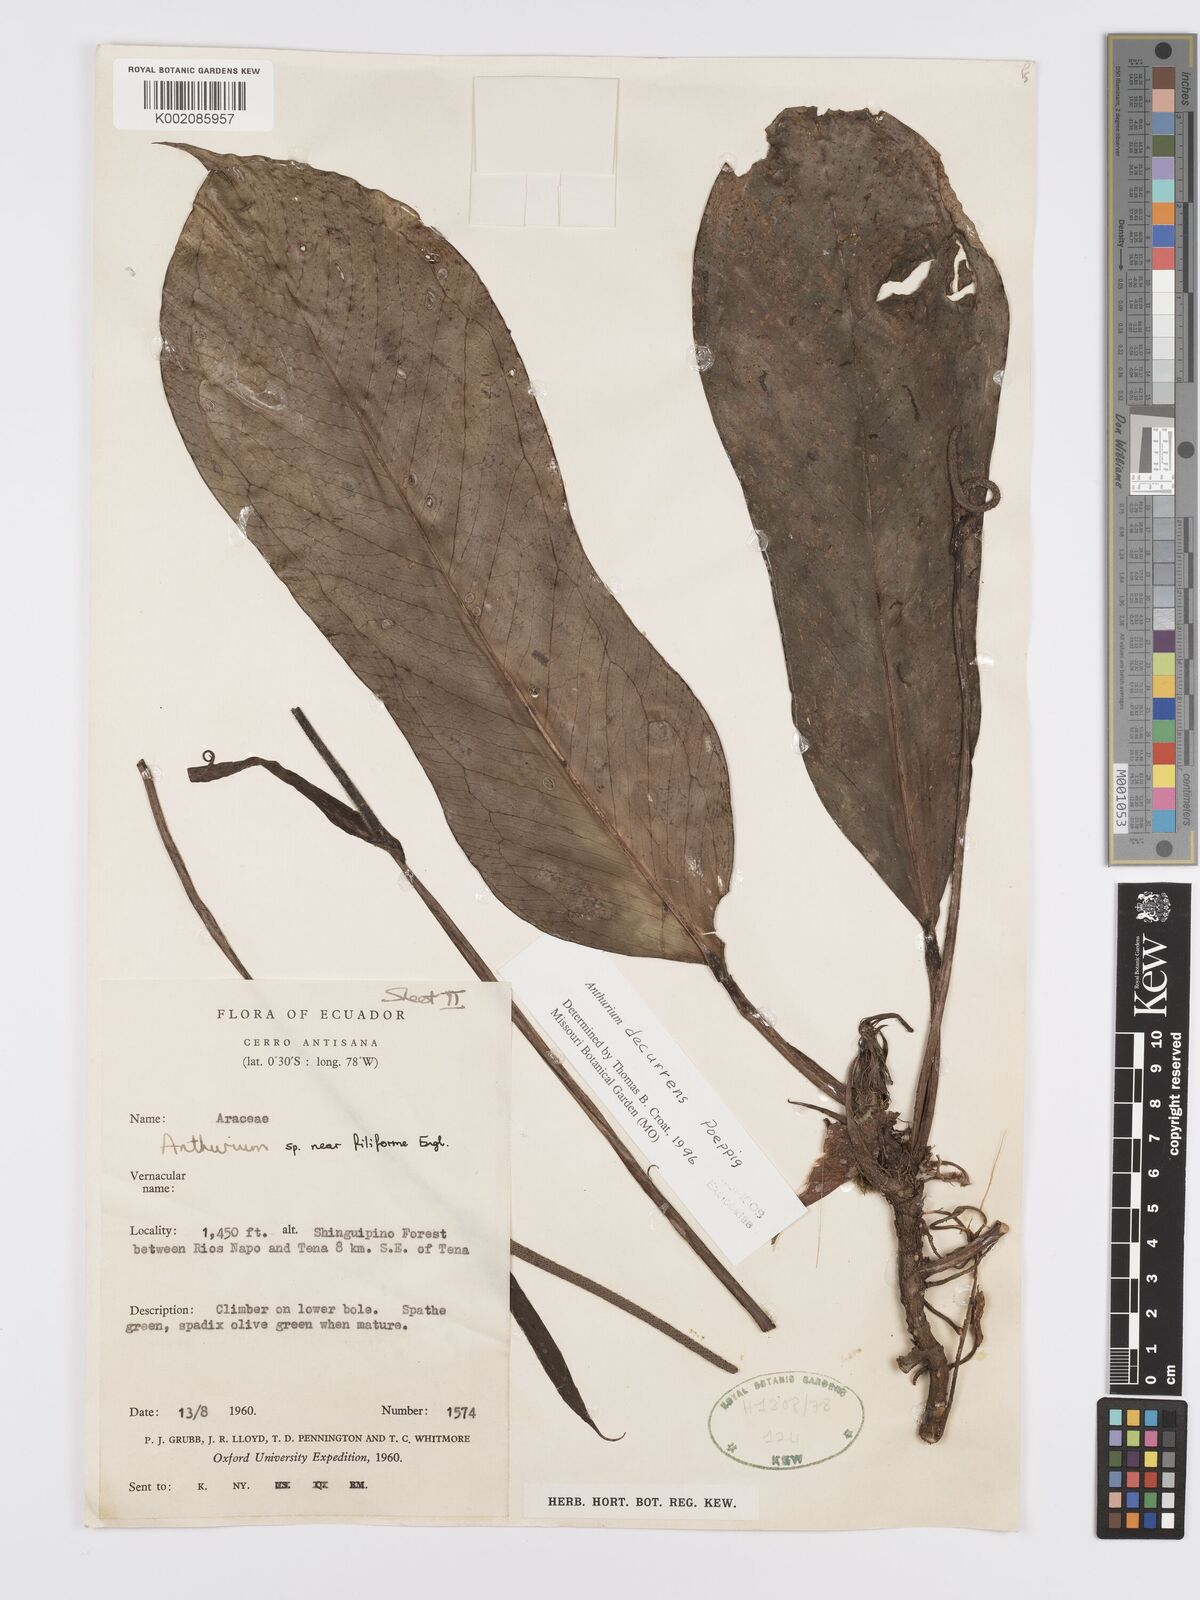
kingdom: Plantae
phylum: Tracheophyta
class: Liliopsida
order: Alismatales
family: Araceae
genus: Anthurium
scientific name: Anthurium decurrens
